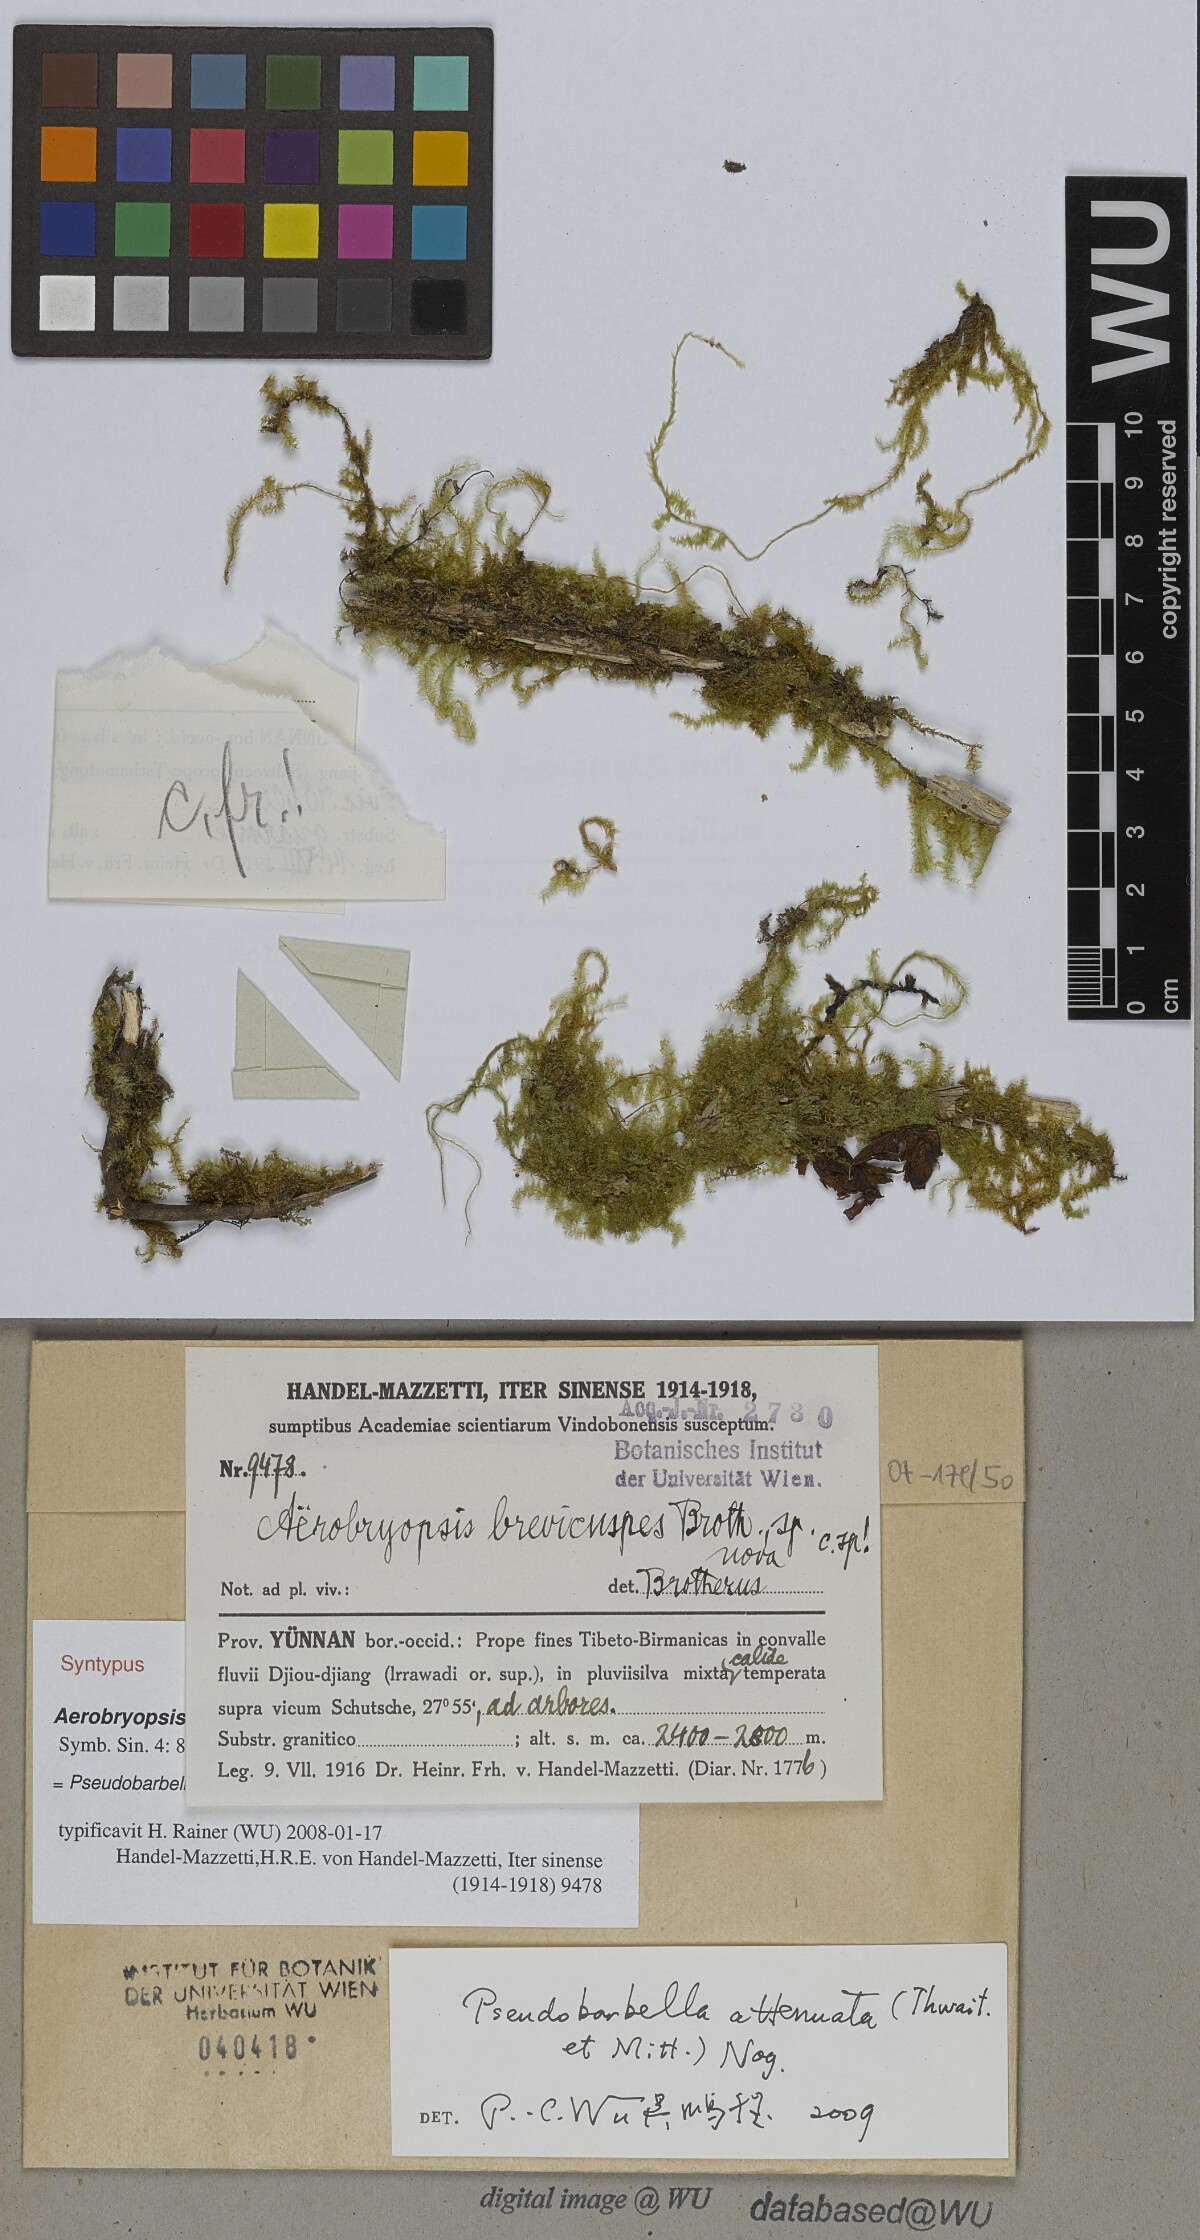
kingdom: Plantae
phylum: Bryophyta
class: Bryopsida
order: Hypnales
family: Meteoriaceae
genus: Pseudotrachypus
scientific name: Pseudotrachypus wallichii
